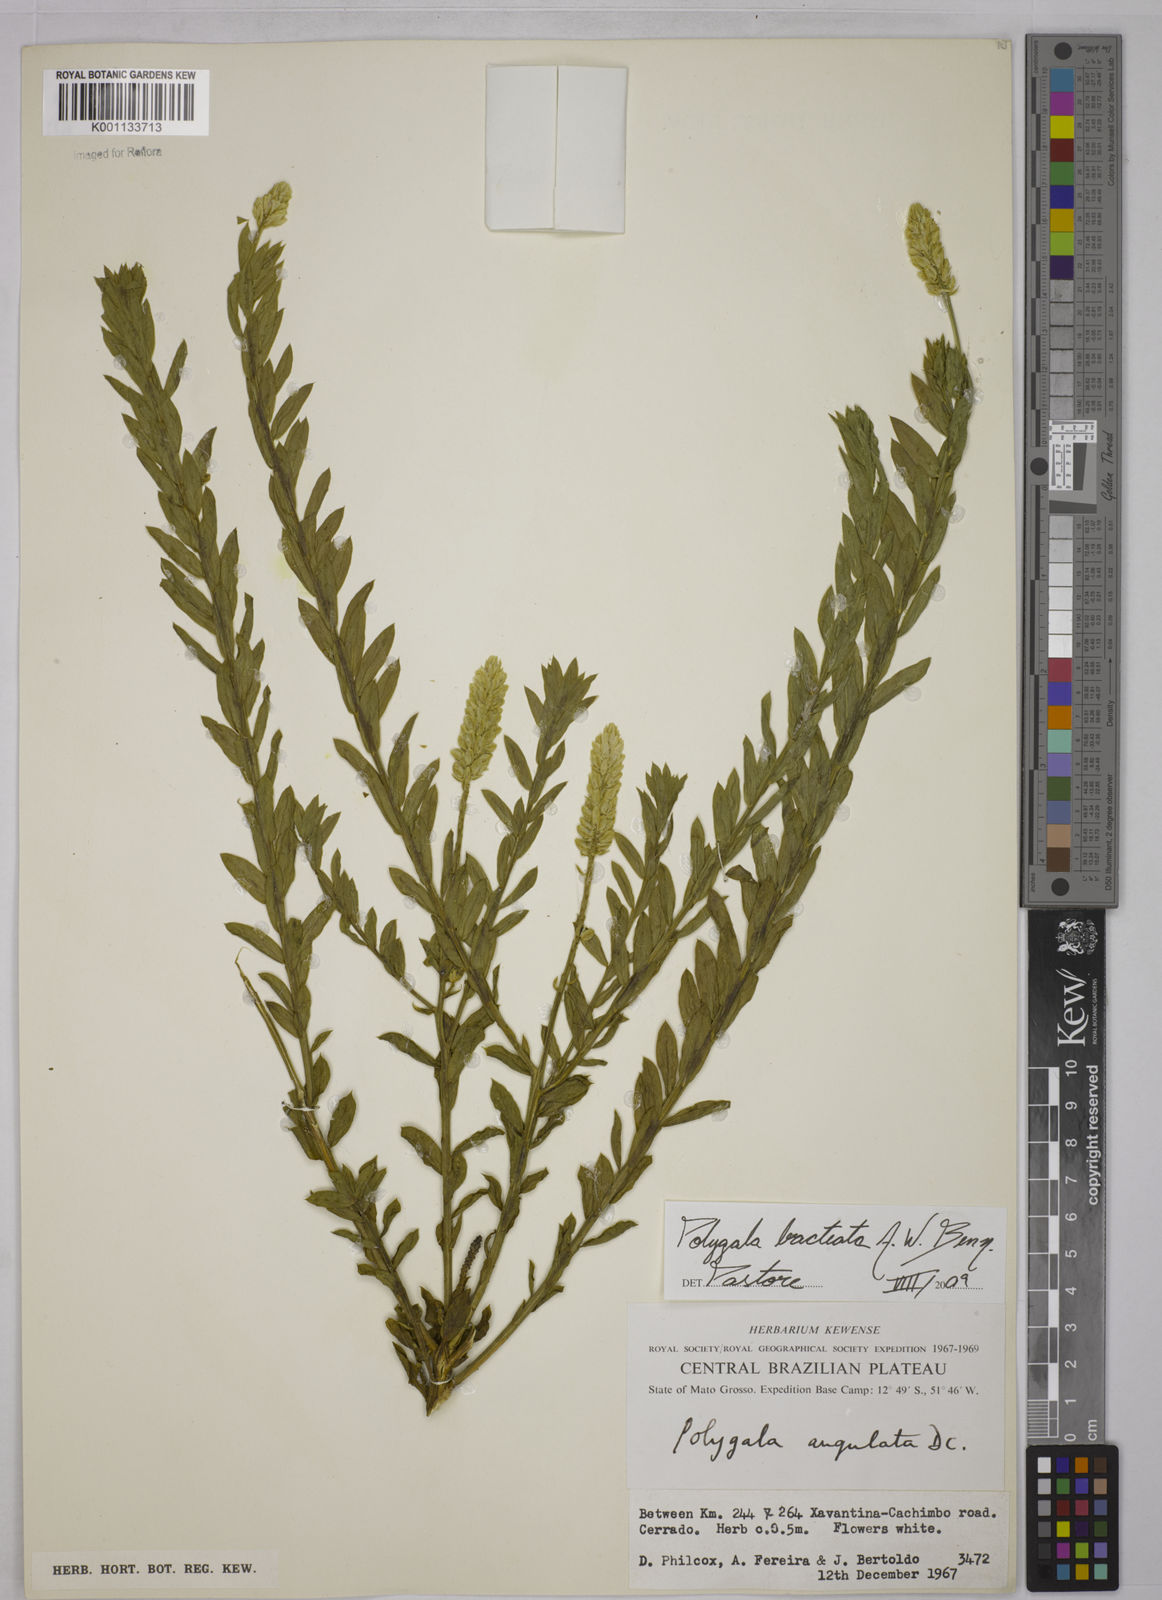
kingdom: Plantae
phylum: Tracheophyta
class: Magnoliopsida
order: Fabales
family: Polygalaceae
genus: Polygala
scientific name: Polygala irwinii
